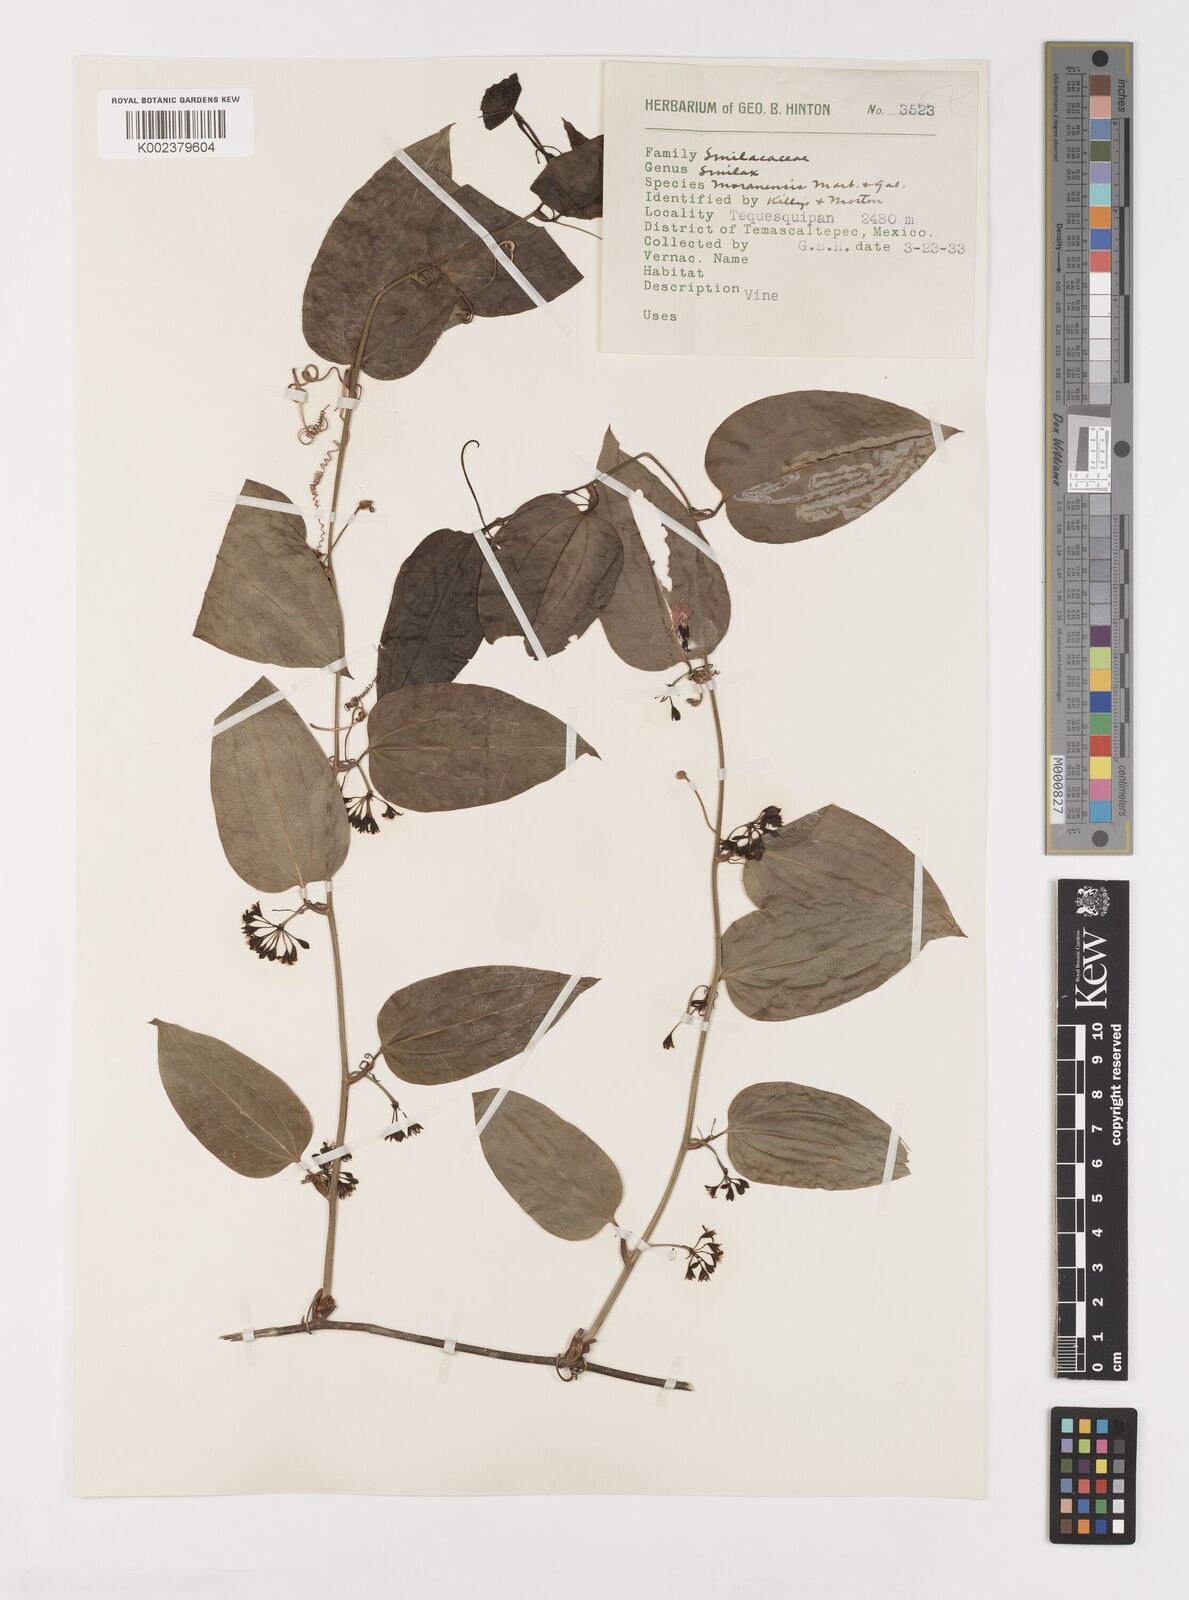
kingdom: Plantae
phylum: Tracheophyta
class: Liliopsida
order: Liliales
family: Smilacaceae
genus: Smilax
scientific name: Smilax moranensis
